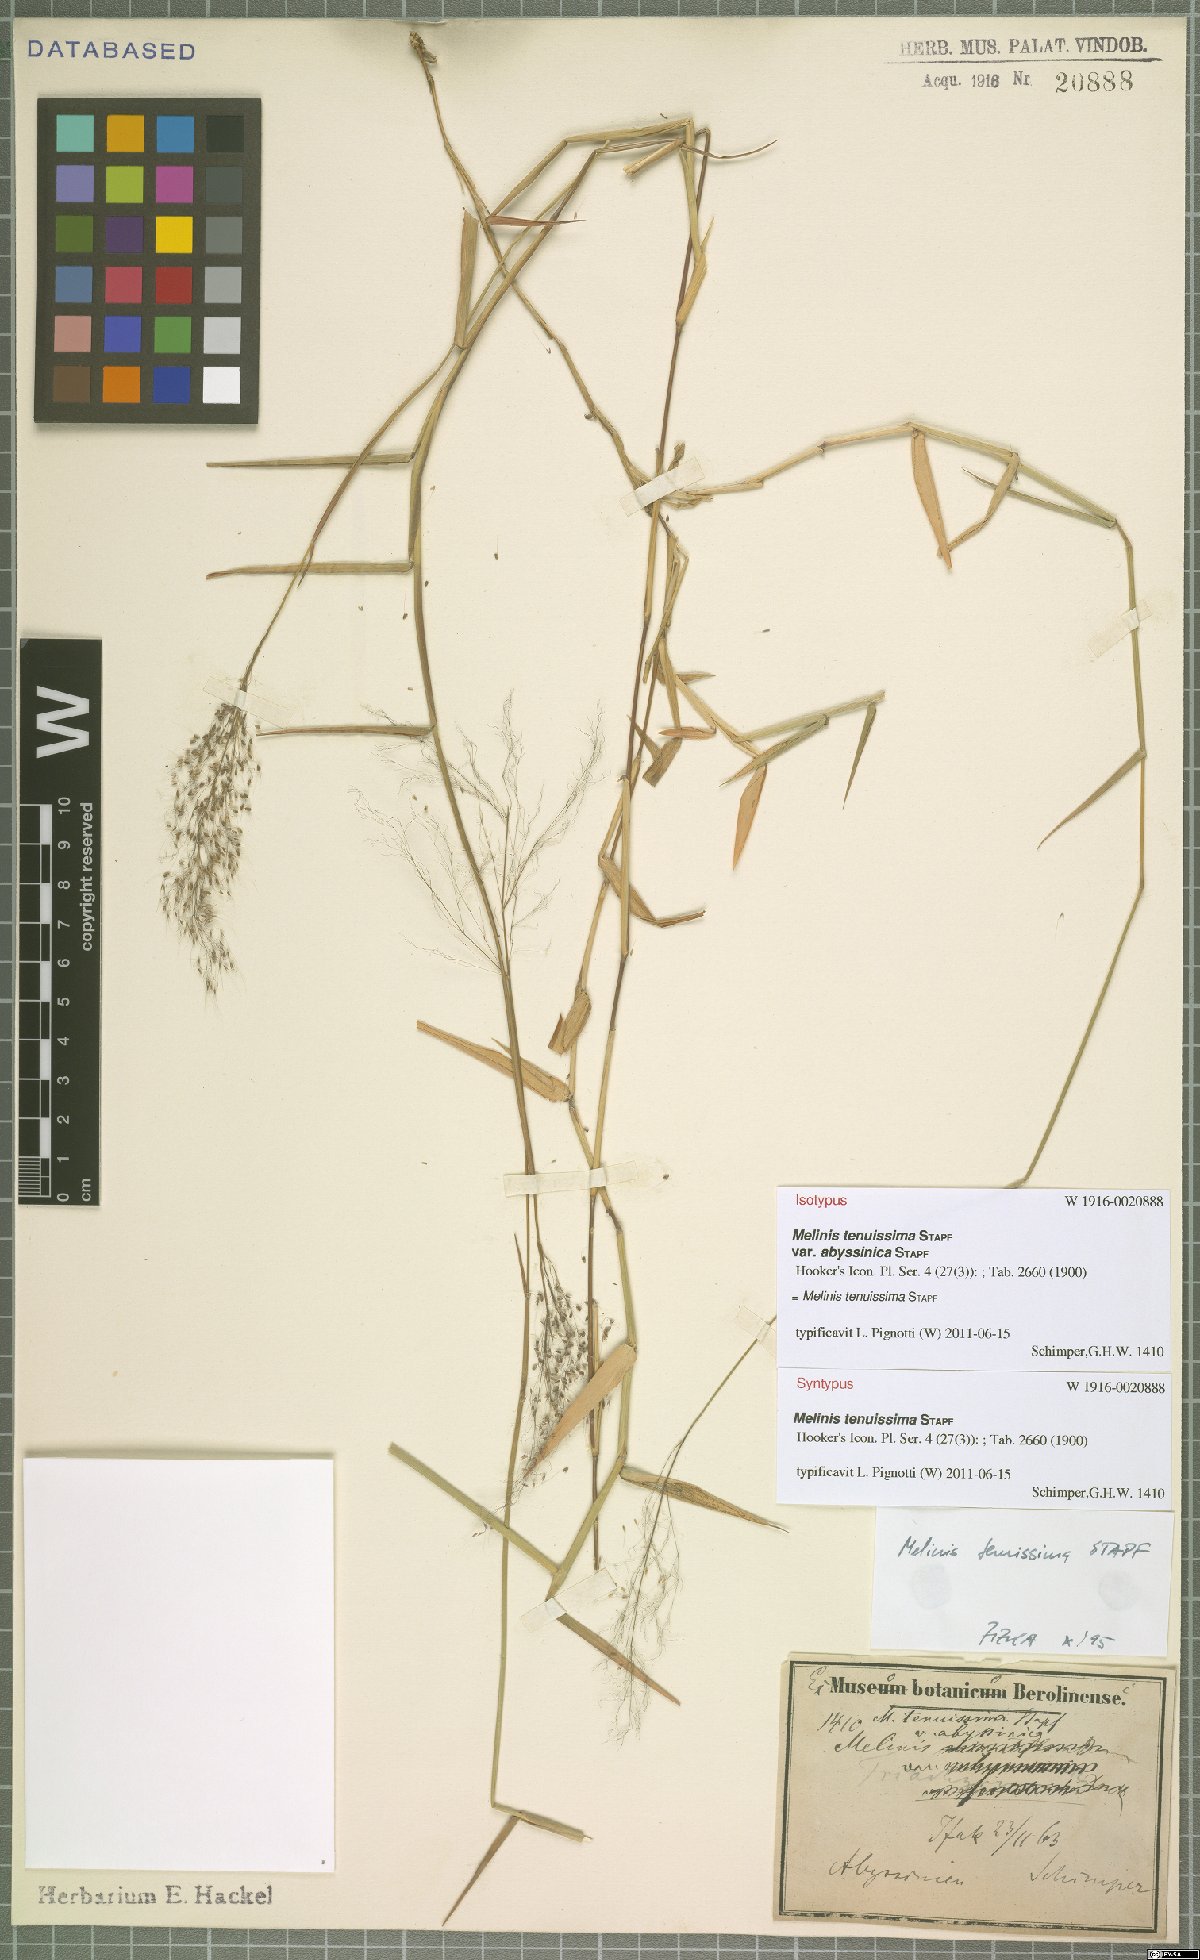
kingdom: Plantae
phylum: Tracheophyta
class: Liliopsida
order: Poales
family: Poaceae
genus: Melinis
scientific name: Melinis tenuissima
